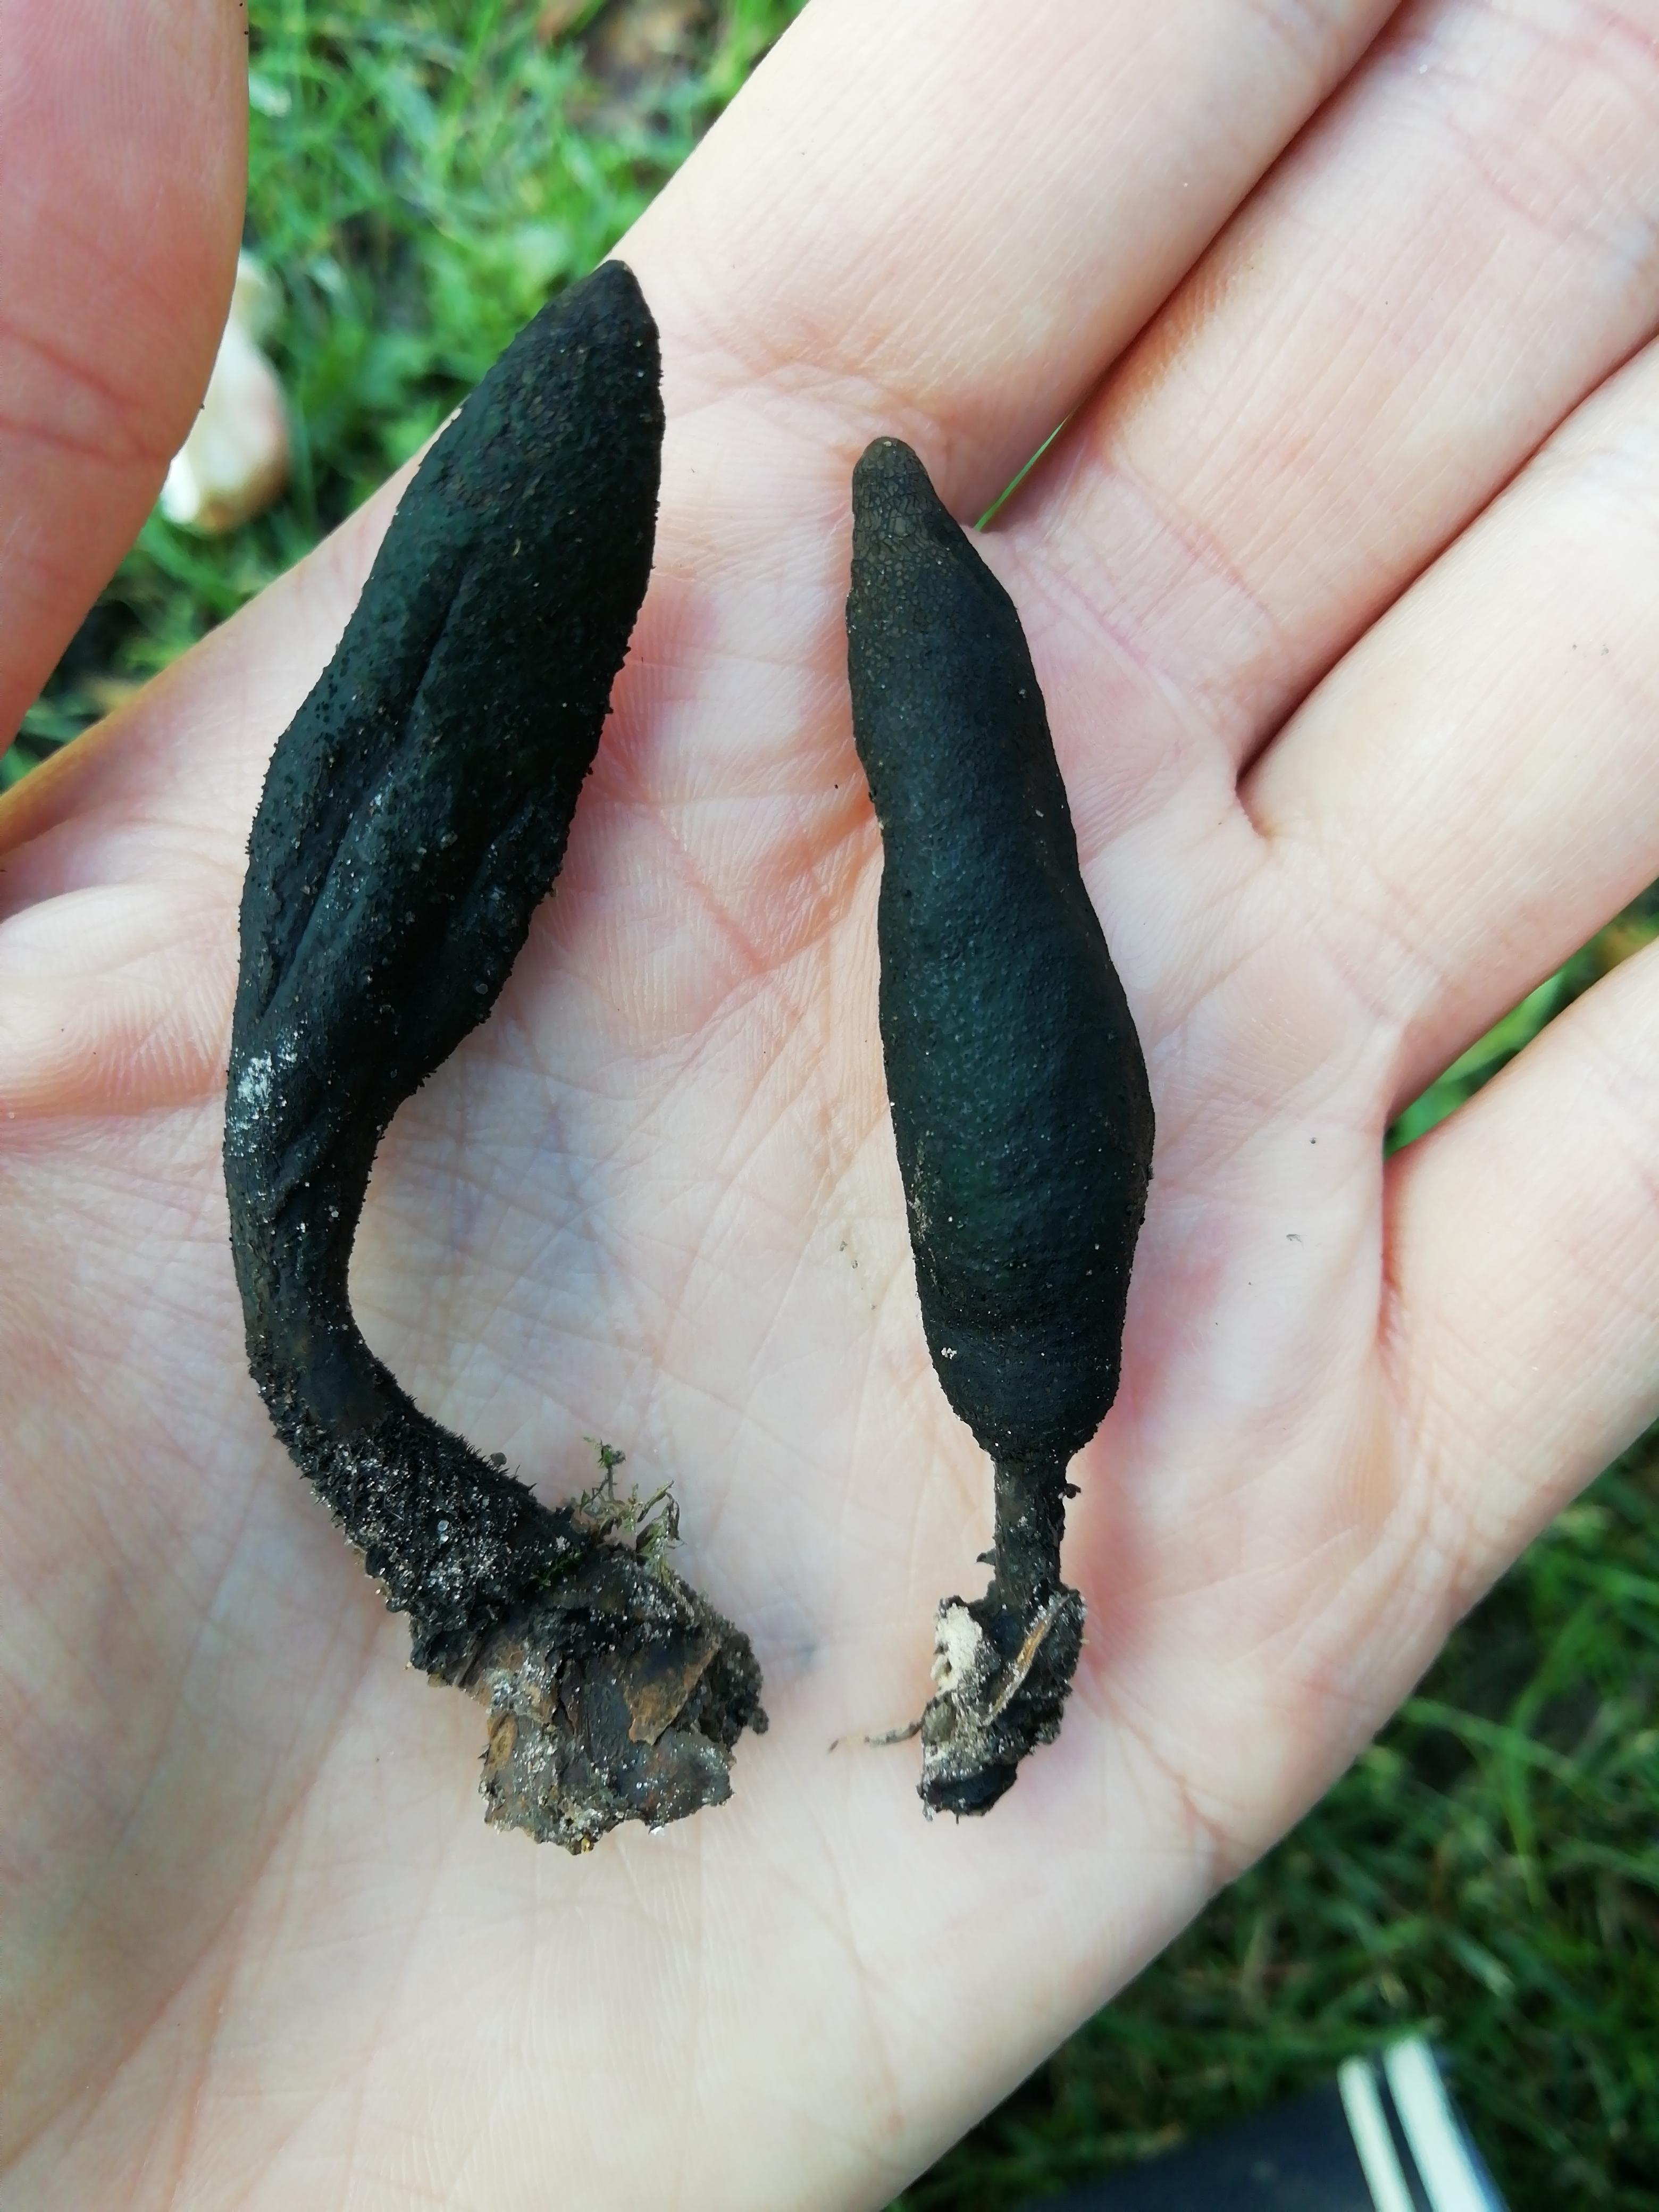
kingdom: Fungi
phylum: Ascomycota
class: Sordariomycetes
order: Xylariales
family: Xylariaceae
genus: Xylaria
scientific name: Xylaria longipes
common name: slank stødsvamp
